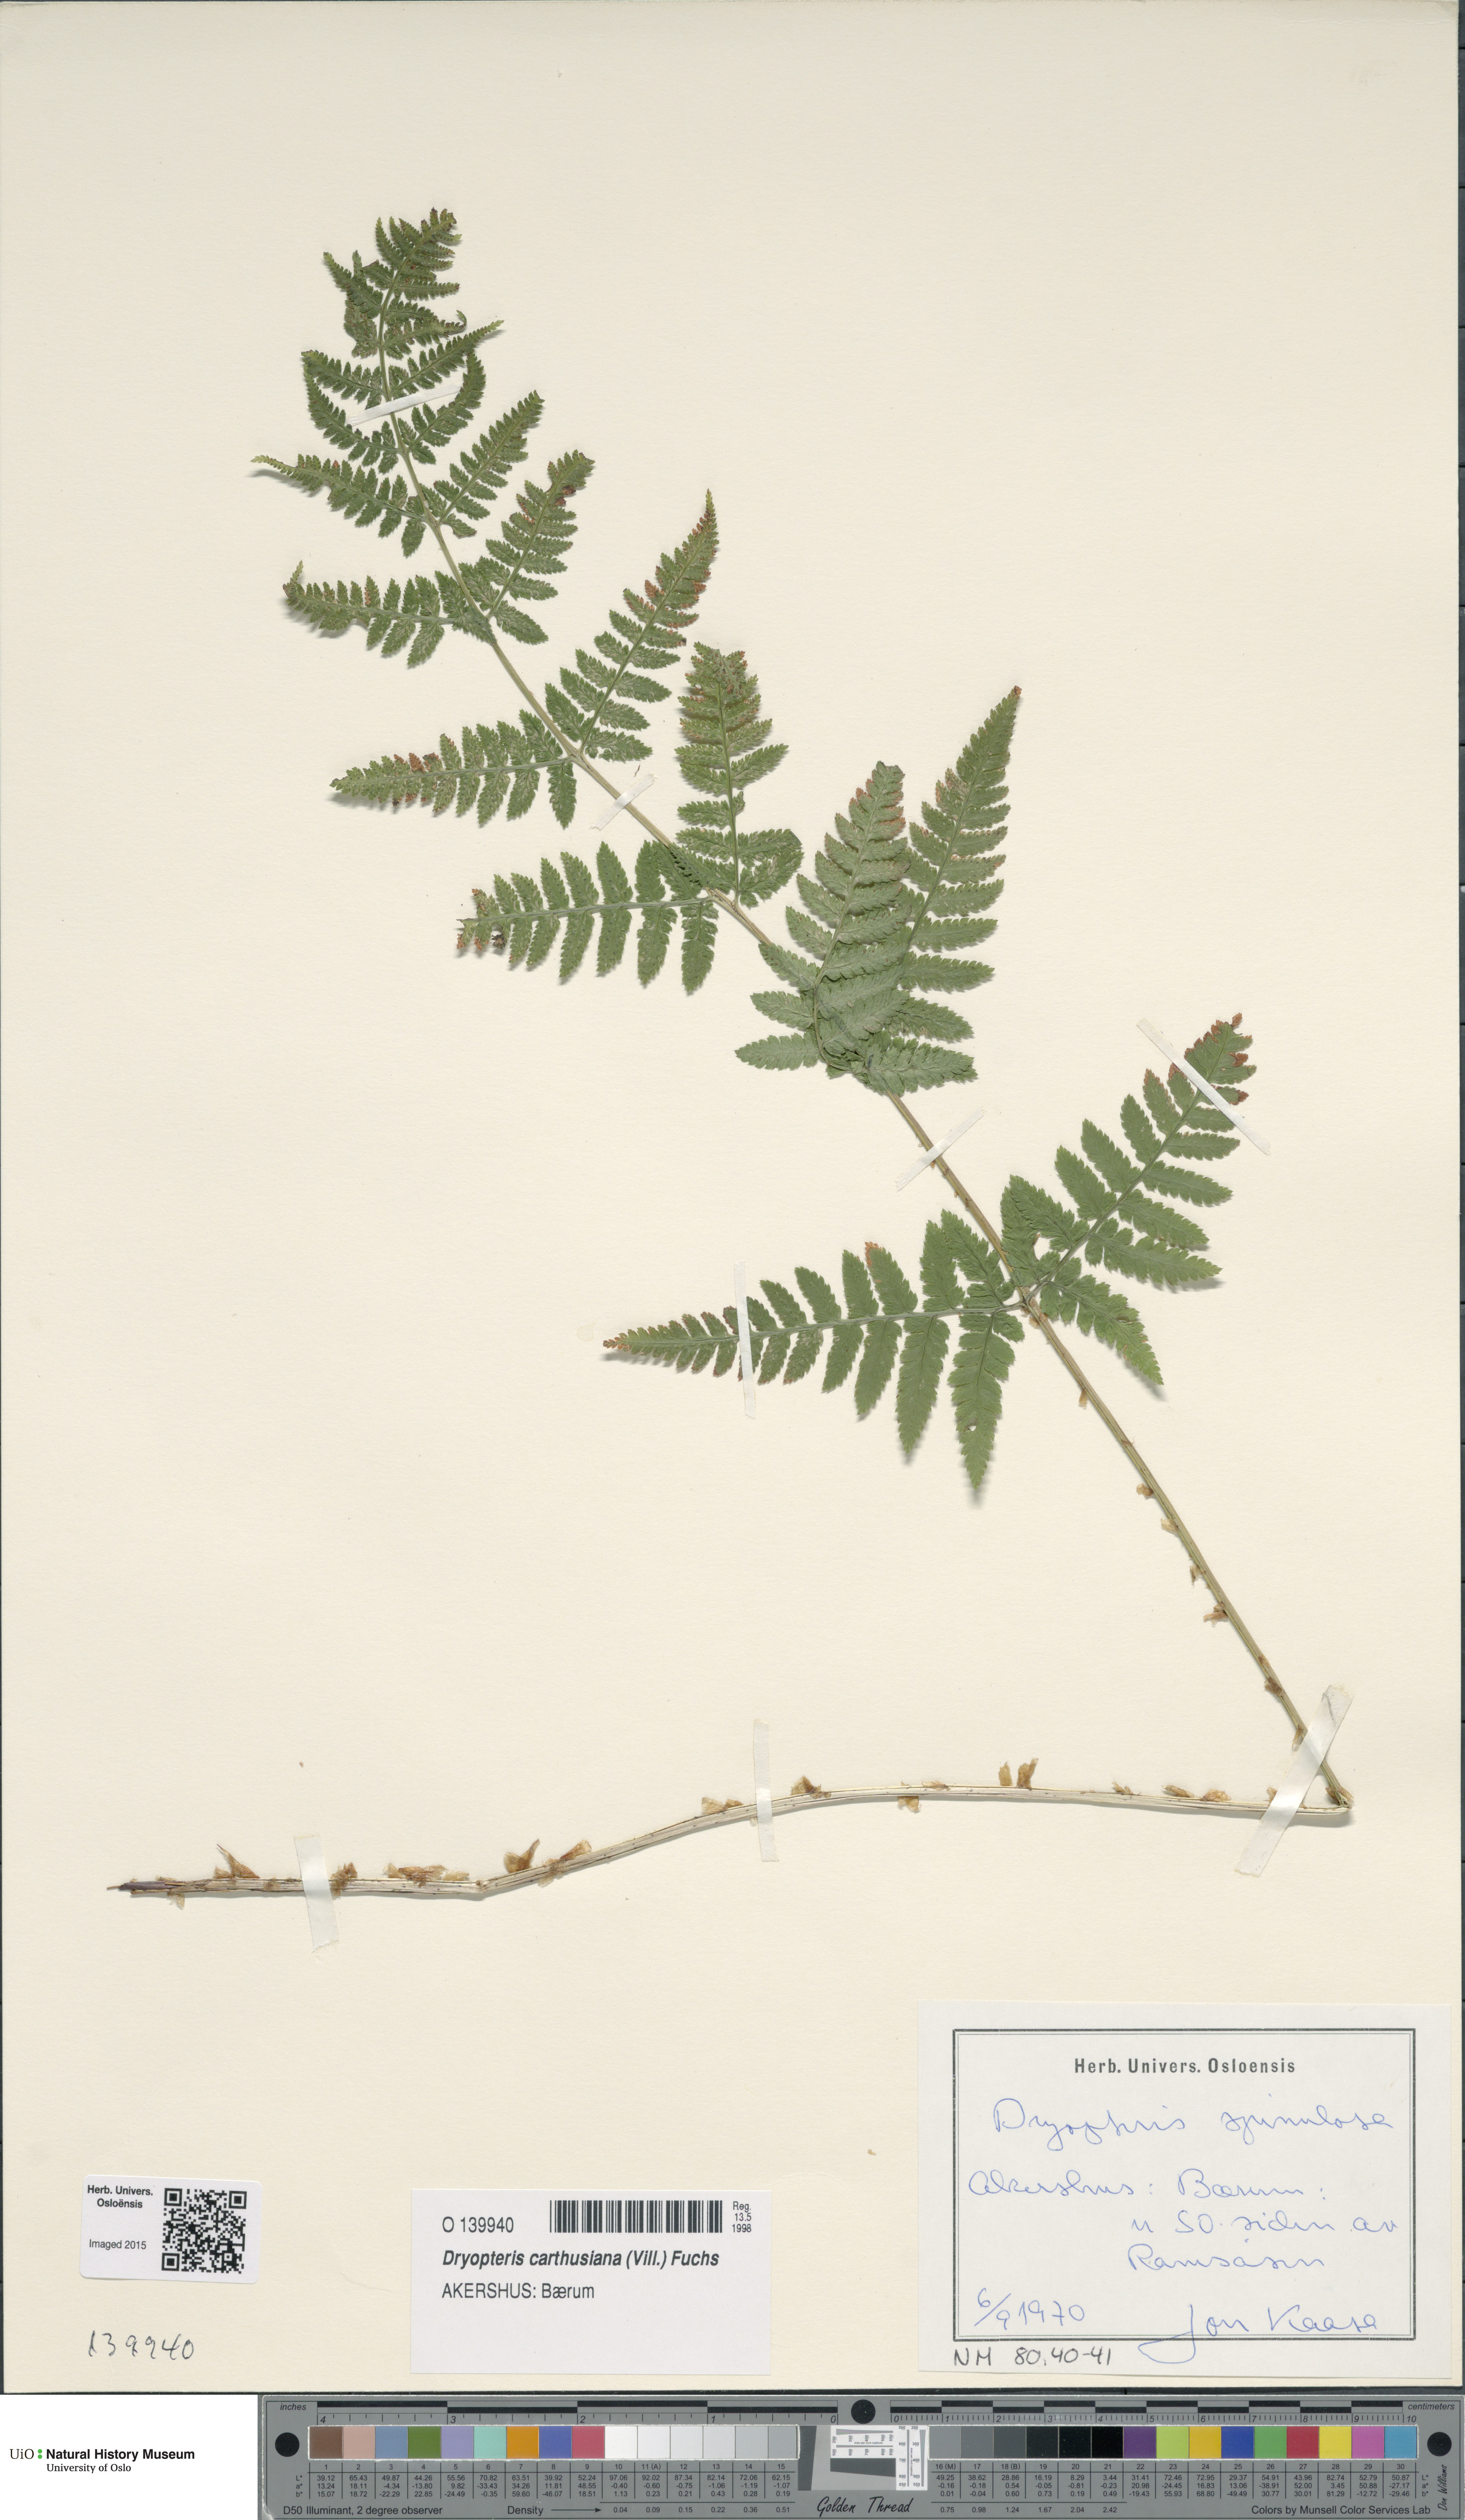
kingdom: Plantae
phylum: Tracheophyta
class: Polypodiopsida
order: Polypodiales
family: Dryopteridaceae
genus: Dryopteris
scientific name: Dryopteris carthusiana
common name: Narrow buckler-fern
